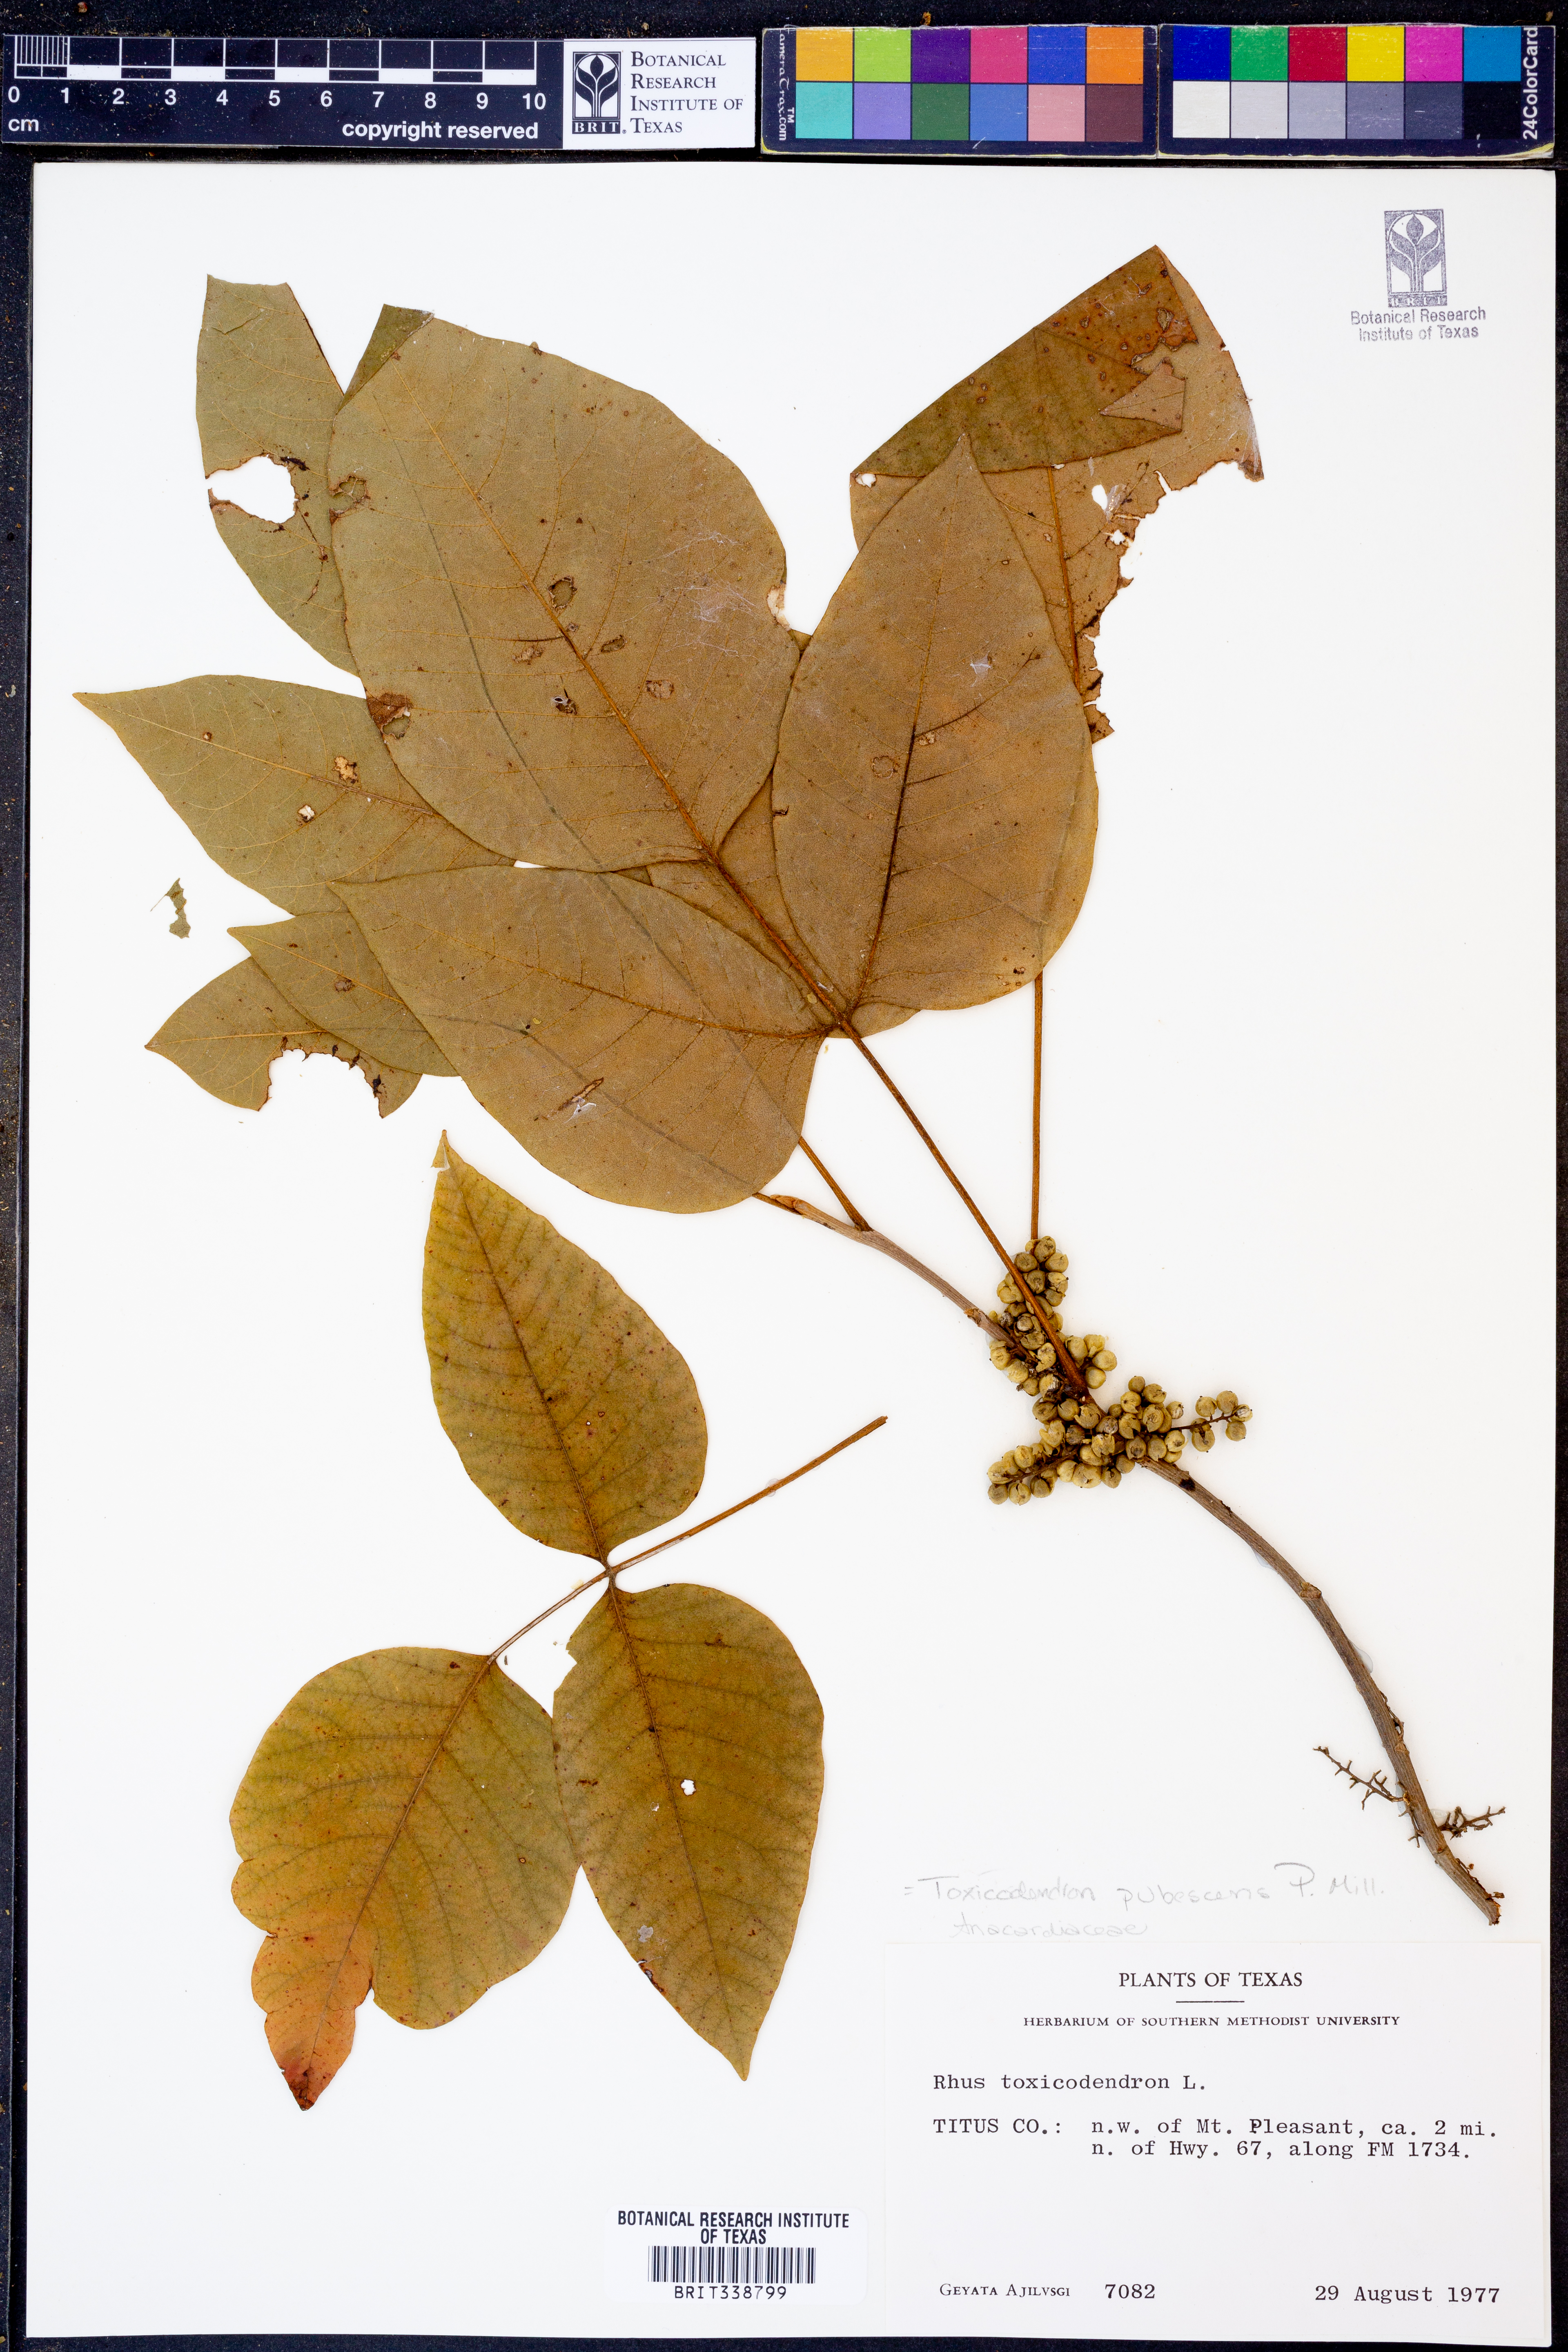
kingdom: Plantae
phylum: Tracheophyta
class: Magnoliopsida
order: Sapindales
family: Anacardiaceae
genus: Toxicodendron
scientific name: Toxicodendron pubescens
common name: Eastern poison-oak
